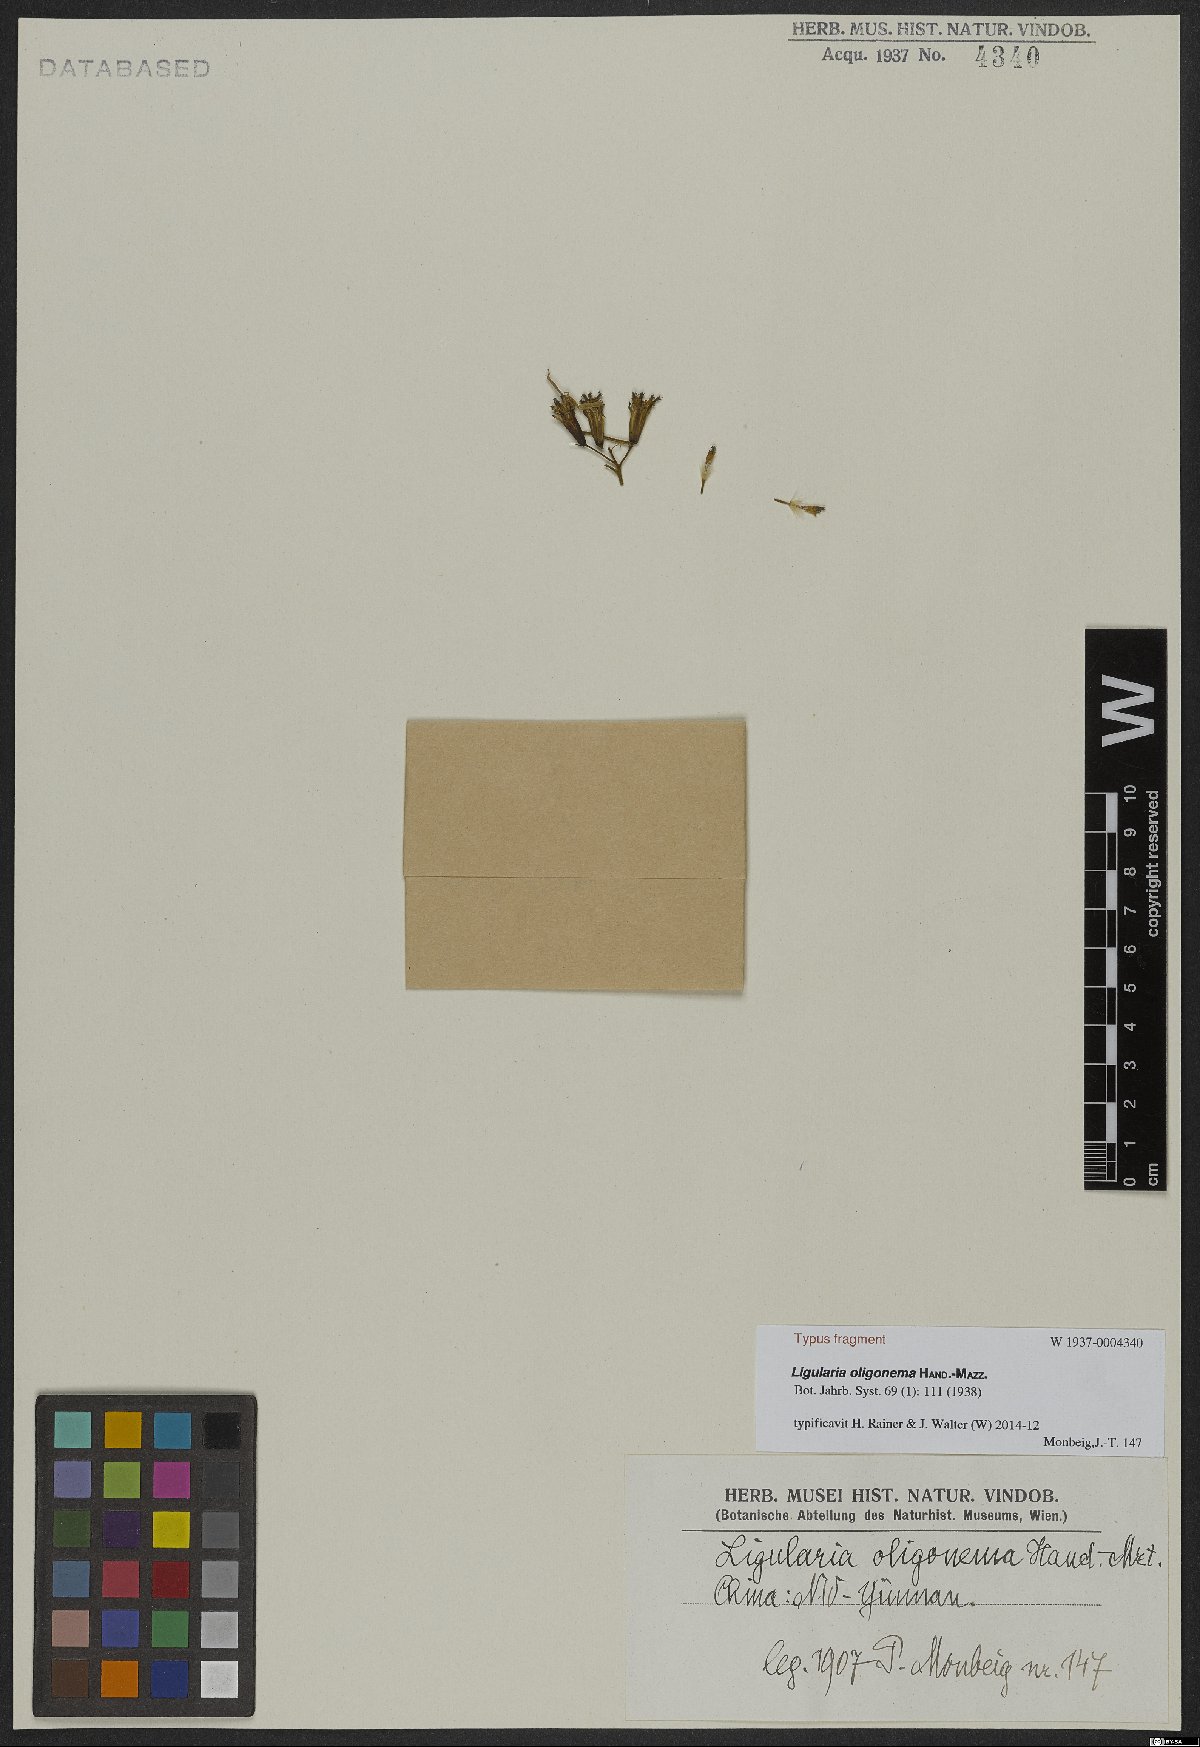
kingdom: Plantae
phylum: Tracheophyta
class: Magnoliopsida
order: Asterales
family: Asteraceae
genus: Ligularia
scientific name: Ligularia oligonema
